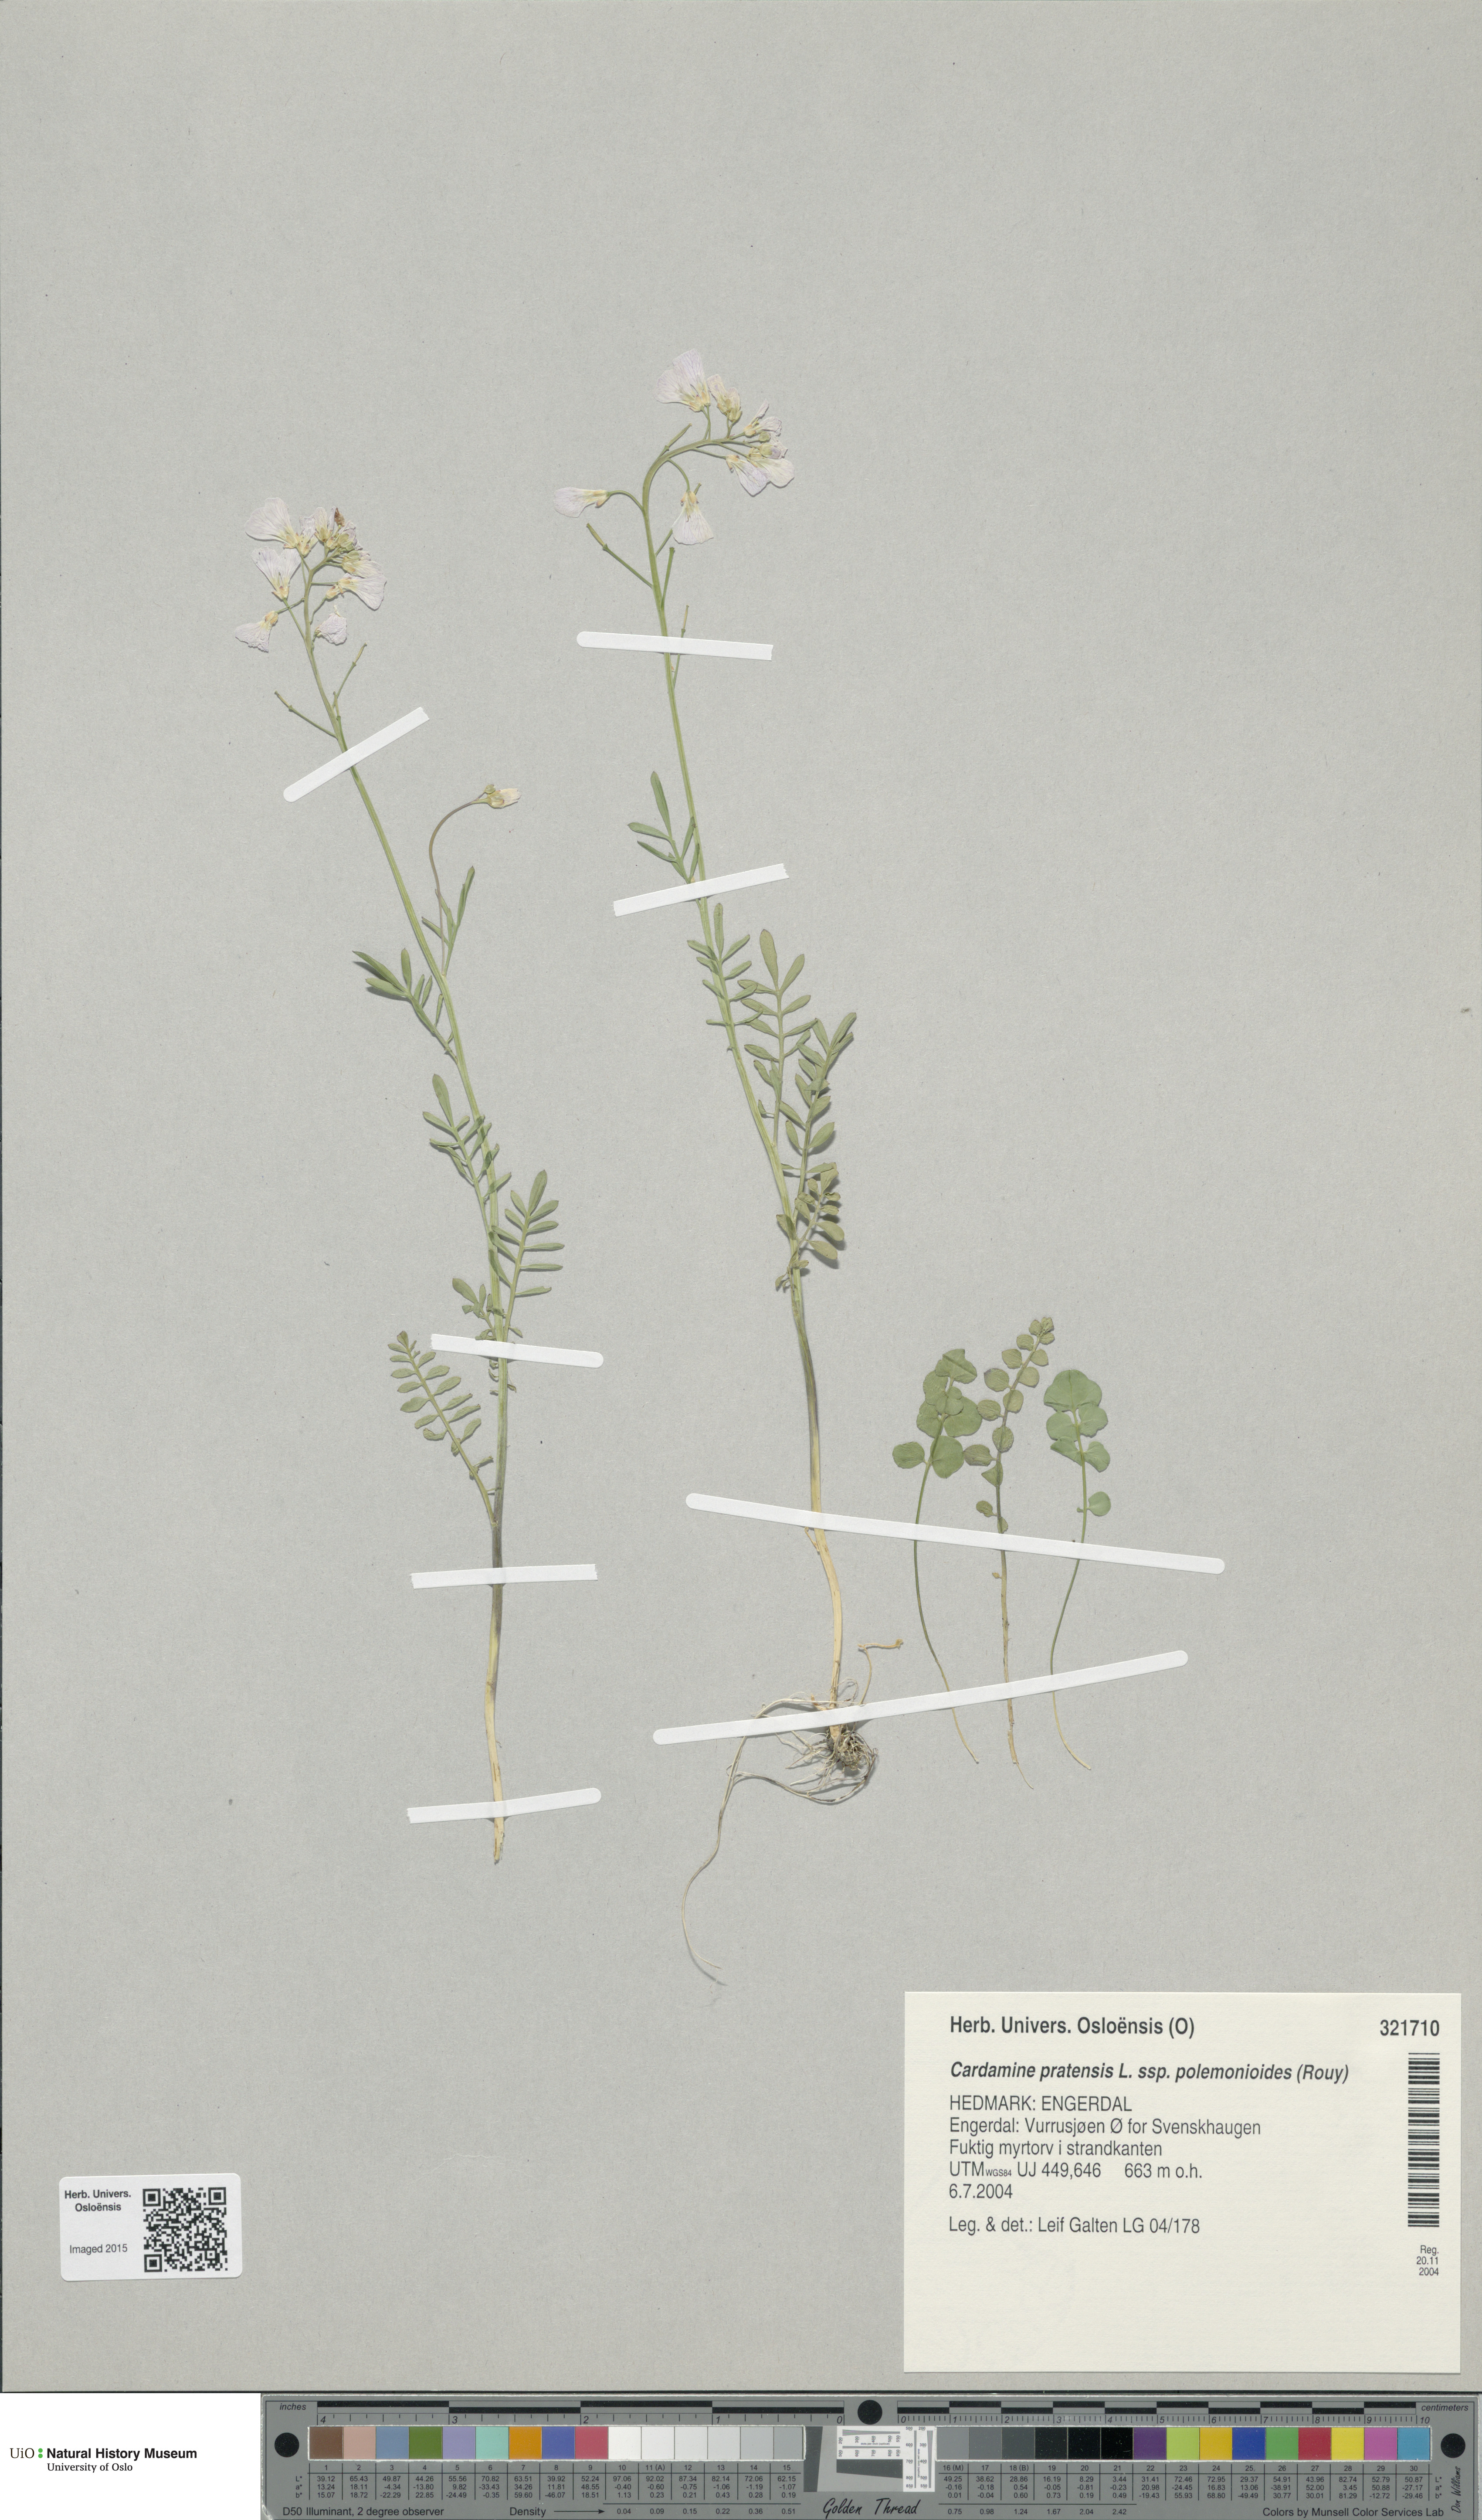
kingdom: Plantae
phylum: Tracheophyta
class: Magnoliopsida
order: Brassicales
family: Brassicaceae
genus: Cardamine
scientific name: Cardamine nymanii
